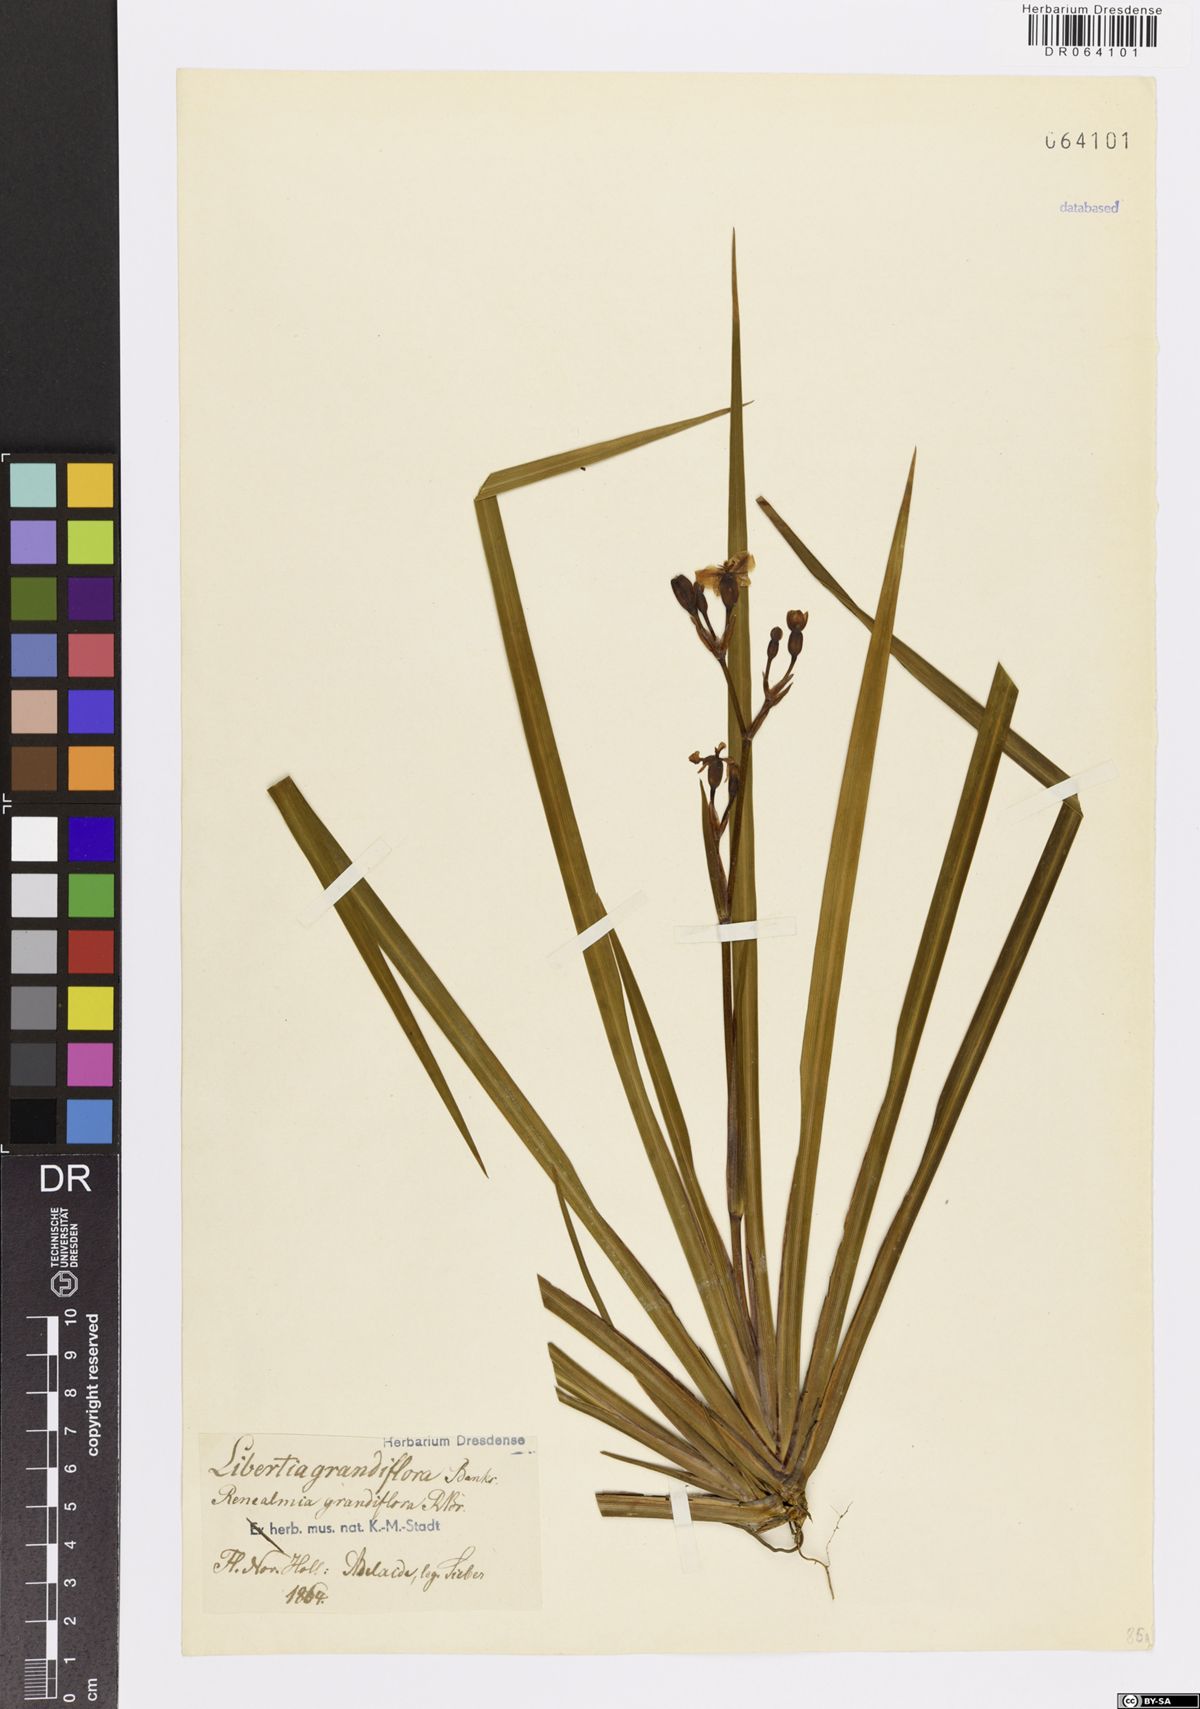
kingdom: Plantae
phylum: Tracheophyta
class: Liliopsida
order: Asparagales
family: Iridaceae
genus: Libertia
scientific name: Libertia grandiflora
